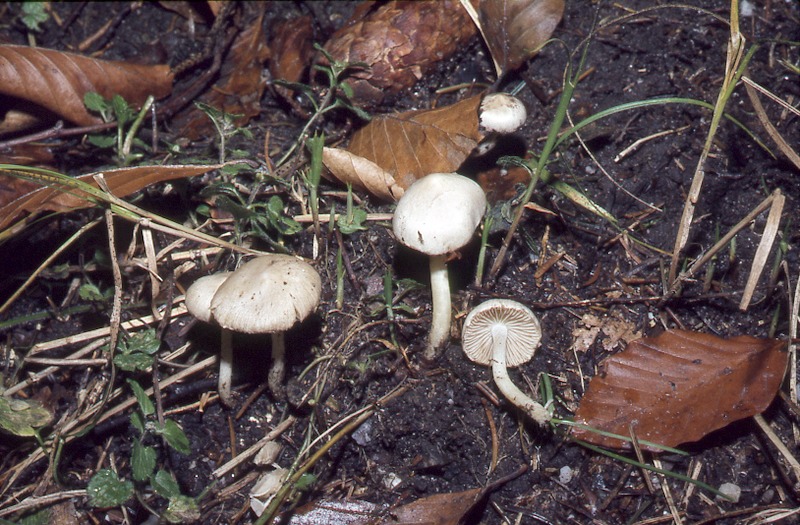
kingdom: Fungi
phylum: Basidiomycota
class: Agaricomycetes
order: Agaricales
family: Inocybaceae
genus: Inocybe
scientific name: Inocybe geophylla
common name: White fibrecap
